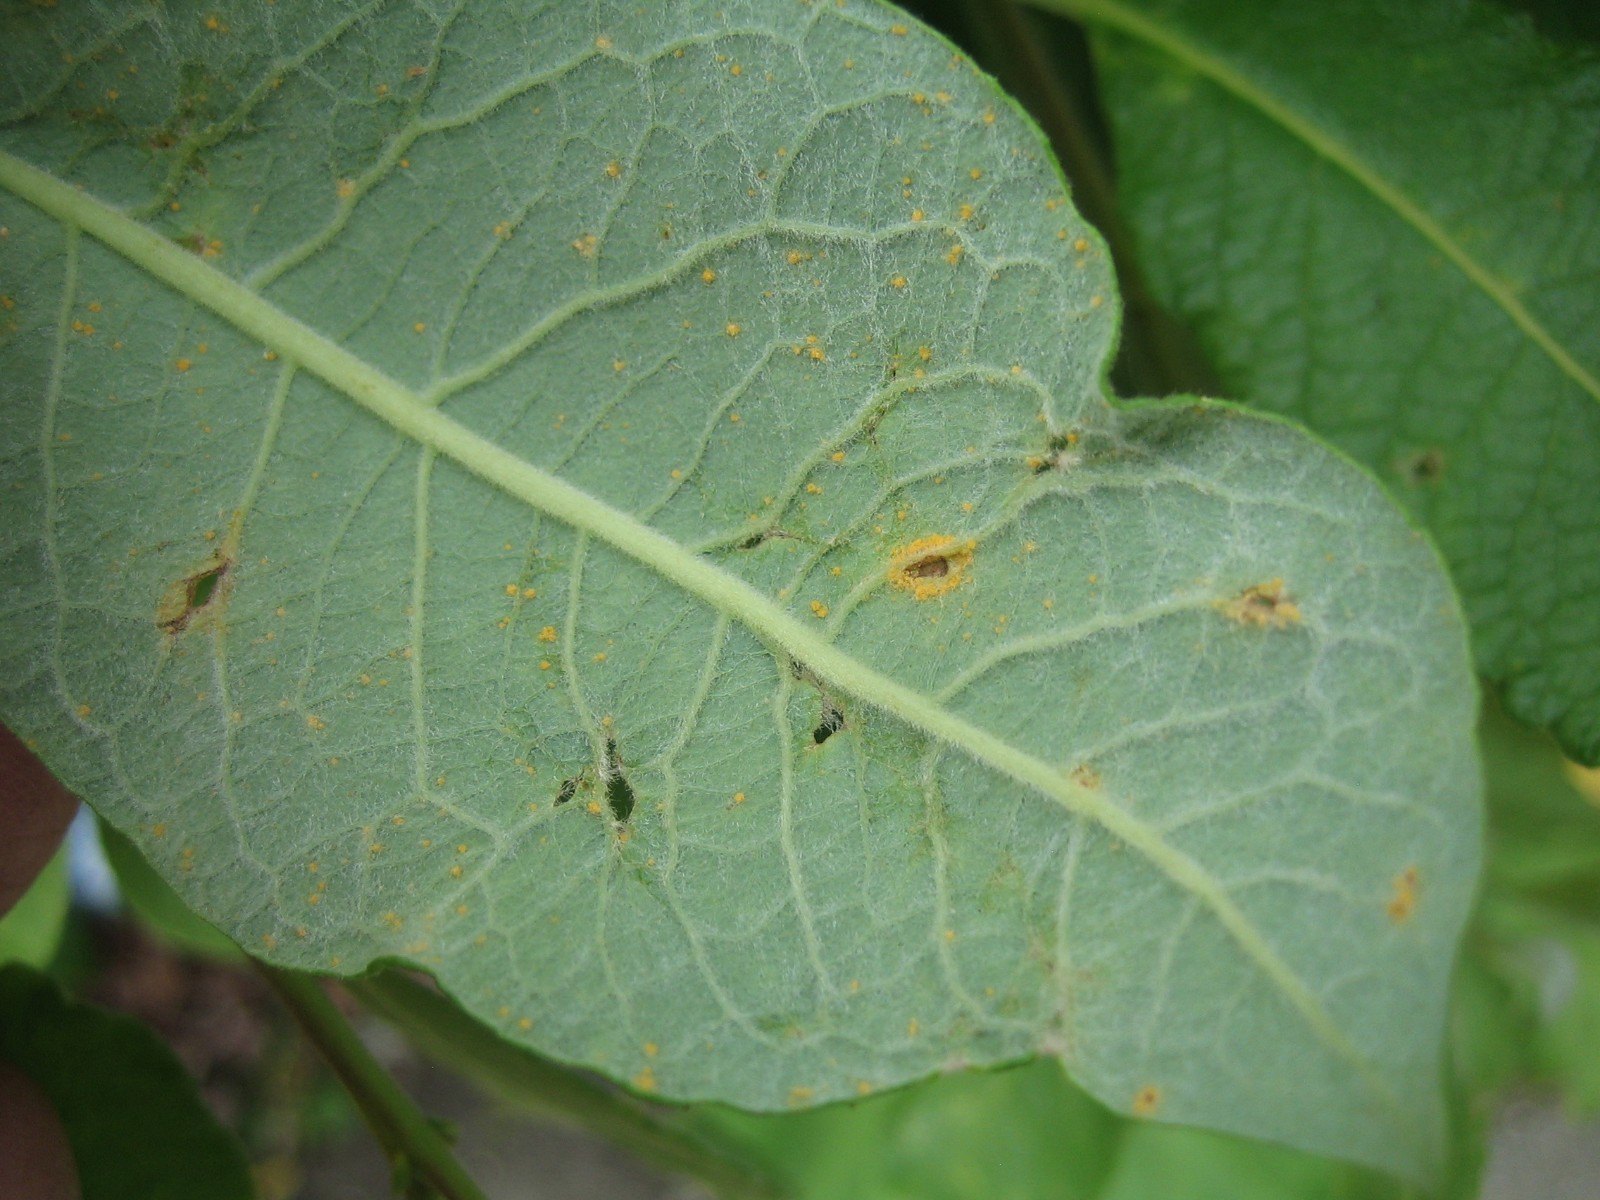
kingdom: Fungi
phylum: Basidiomycota
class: Pucciniomycetes
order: Pucciniales
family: Melampsoraceae
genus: Melampsora
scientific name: Melampsora
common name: skorperust
